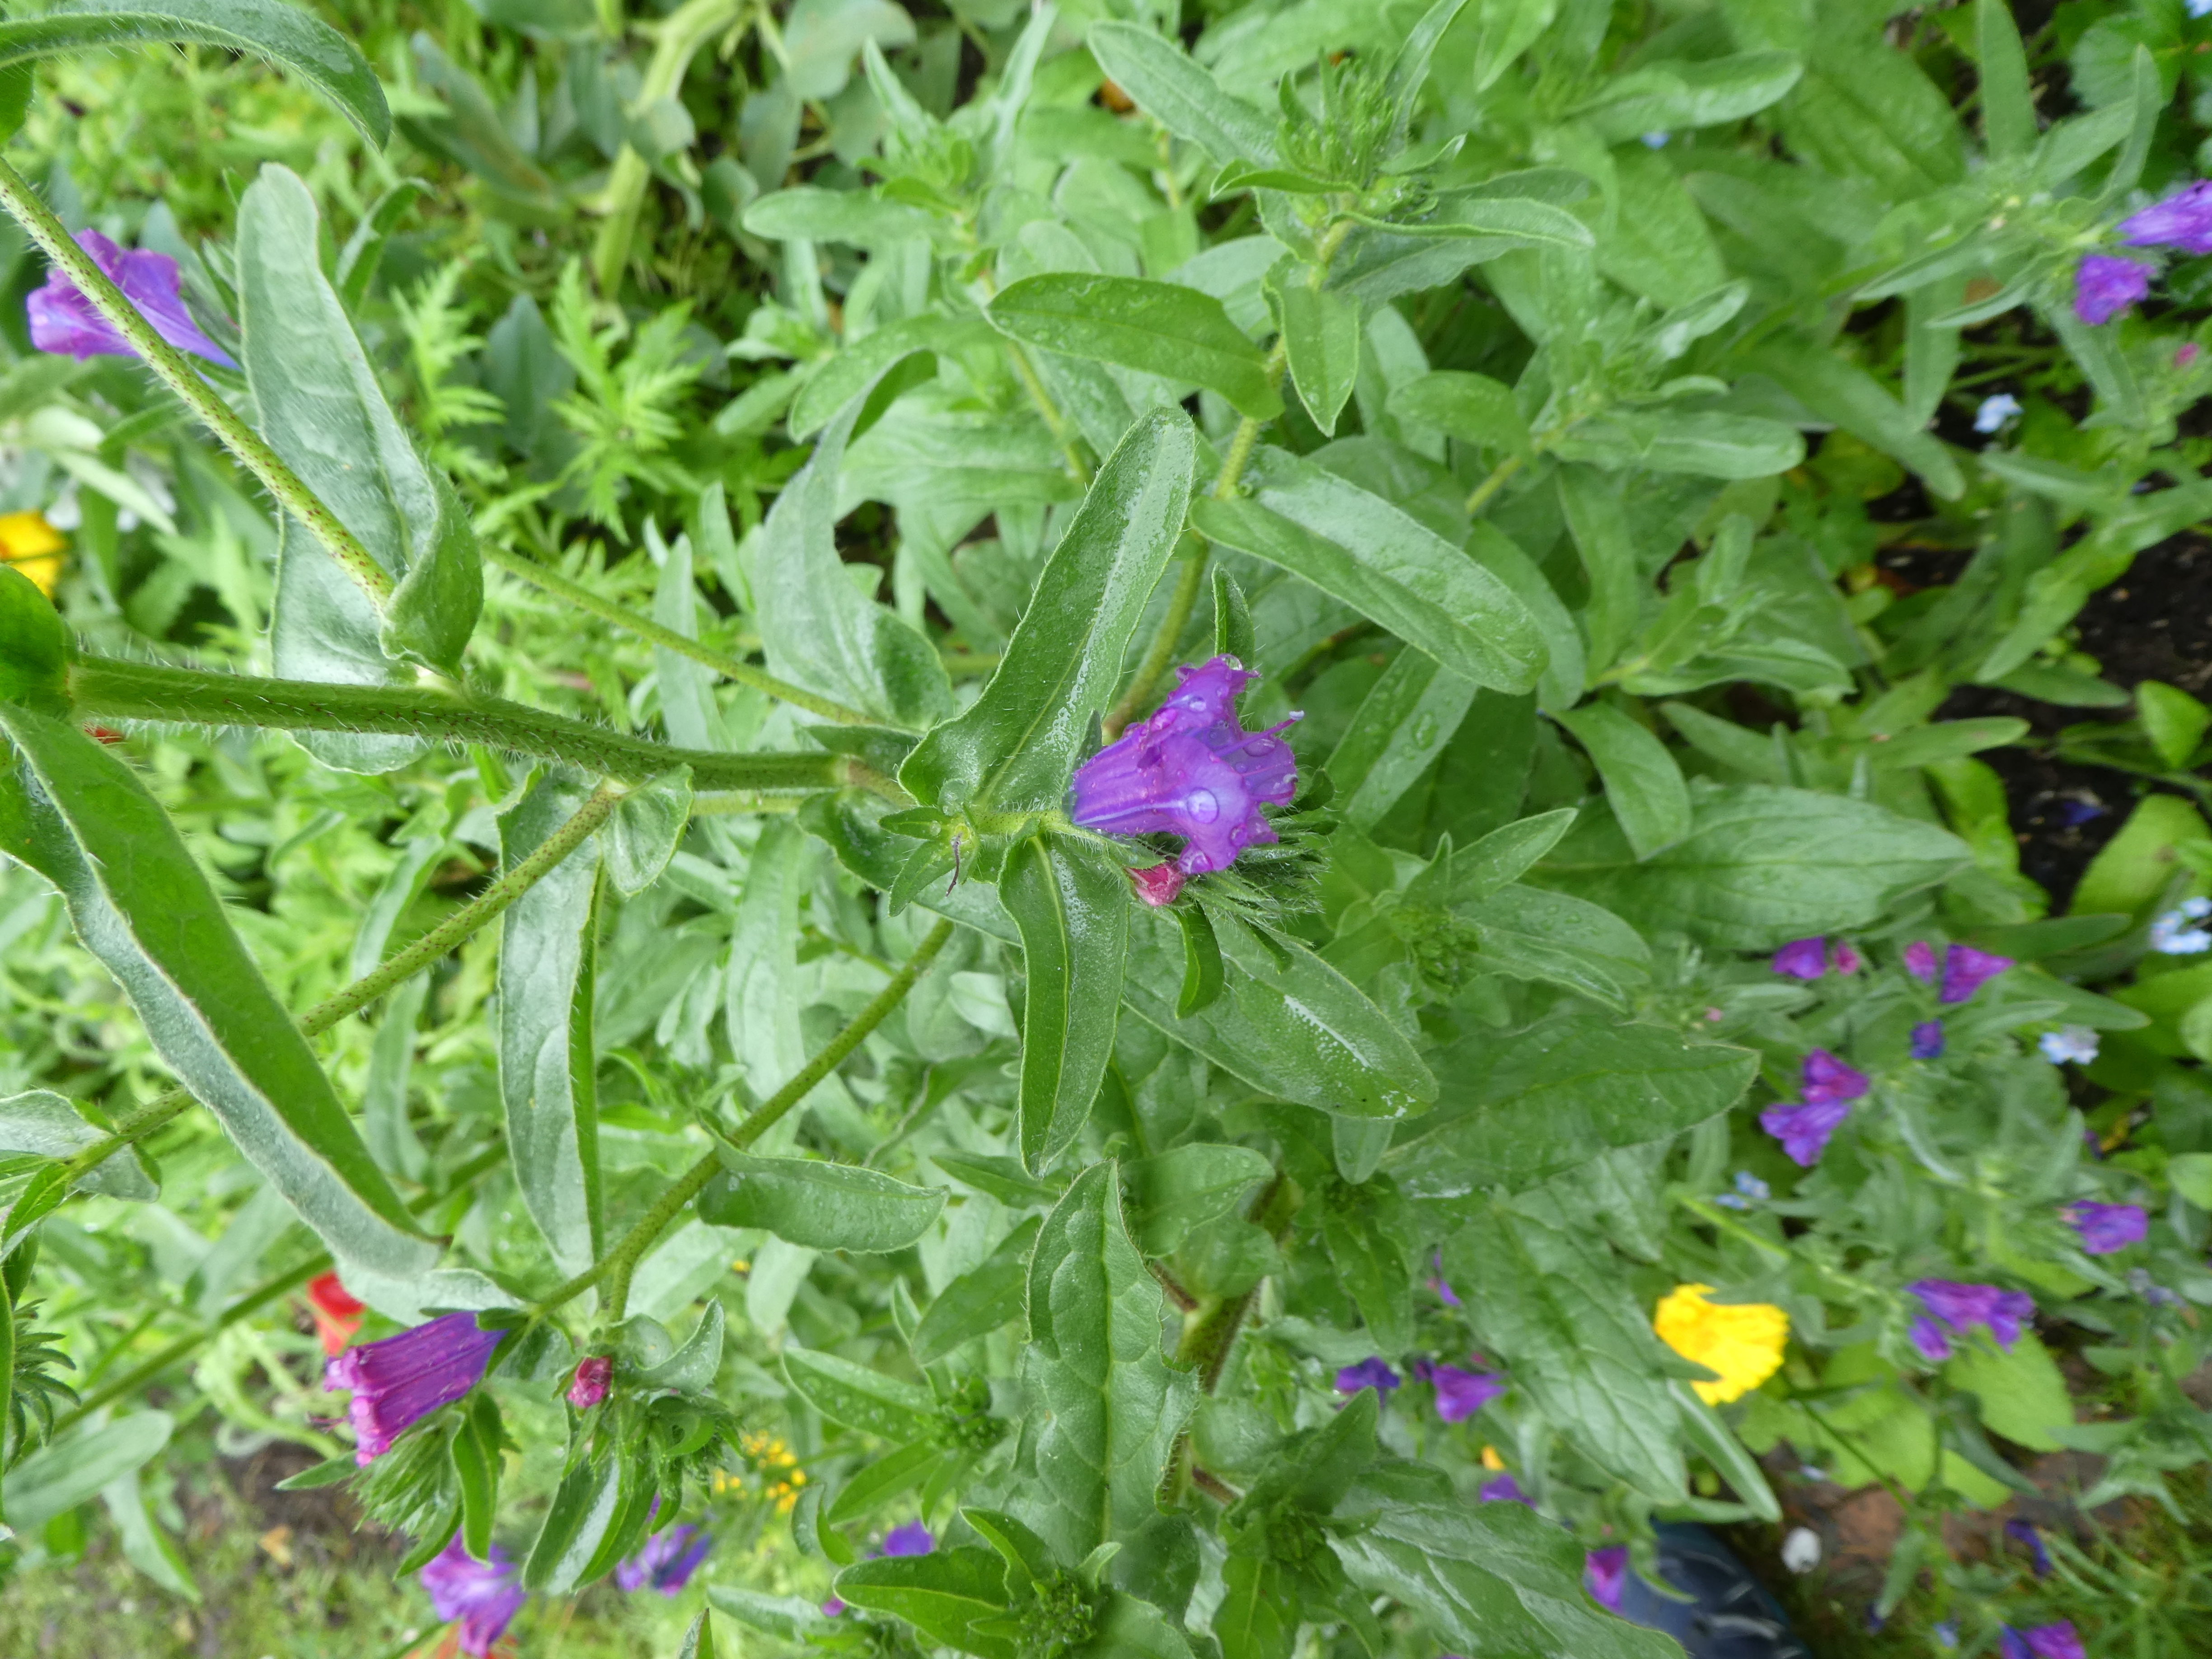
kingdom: Plantae
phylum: Tracheophyta
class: Magnoliopsida
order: Boraginales
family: Boraginaceae
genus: Echium
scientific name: Echium plantagineum
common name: Purple viper's-bugloss
